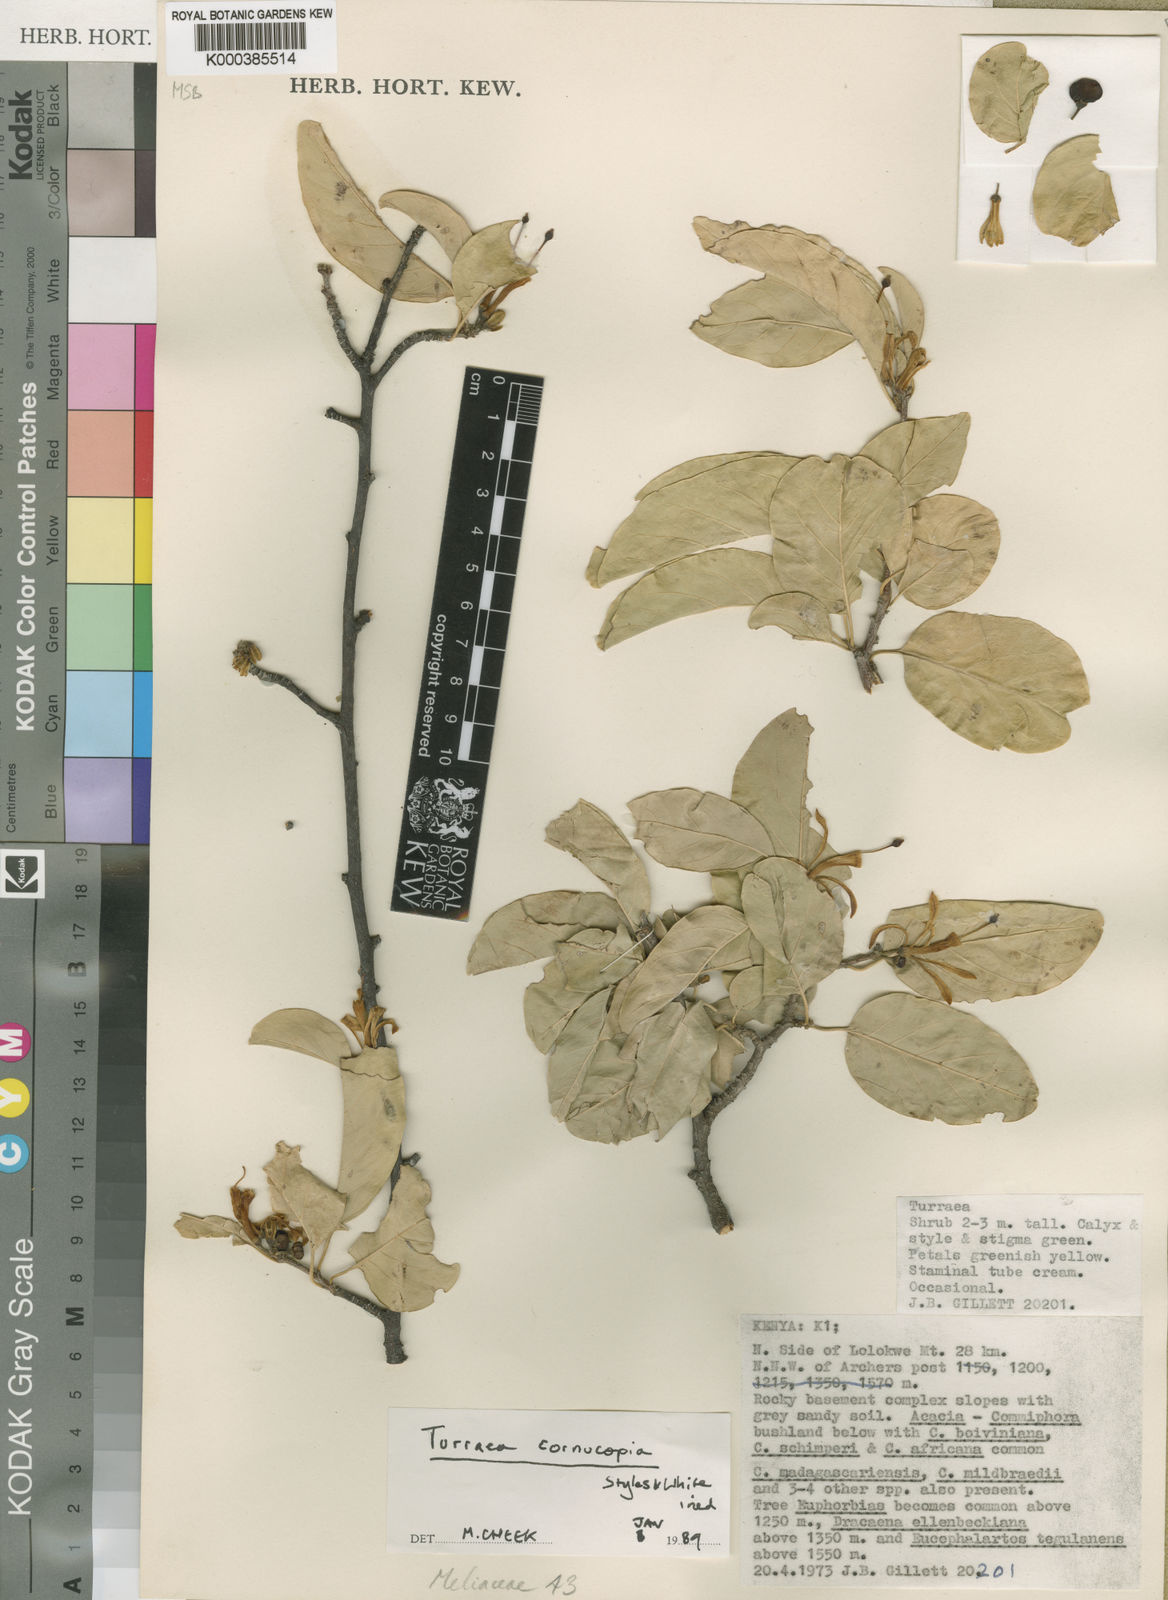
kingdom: Plantae
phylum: Tracheophyta
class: Magnoliopsida
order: Sapindales
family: Meliaceae
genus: Turraea
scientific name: Turraea cornucopia
